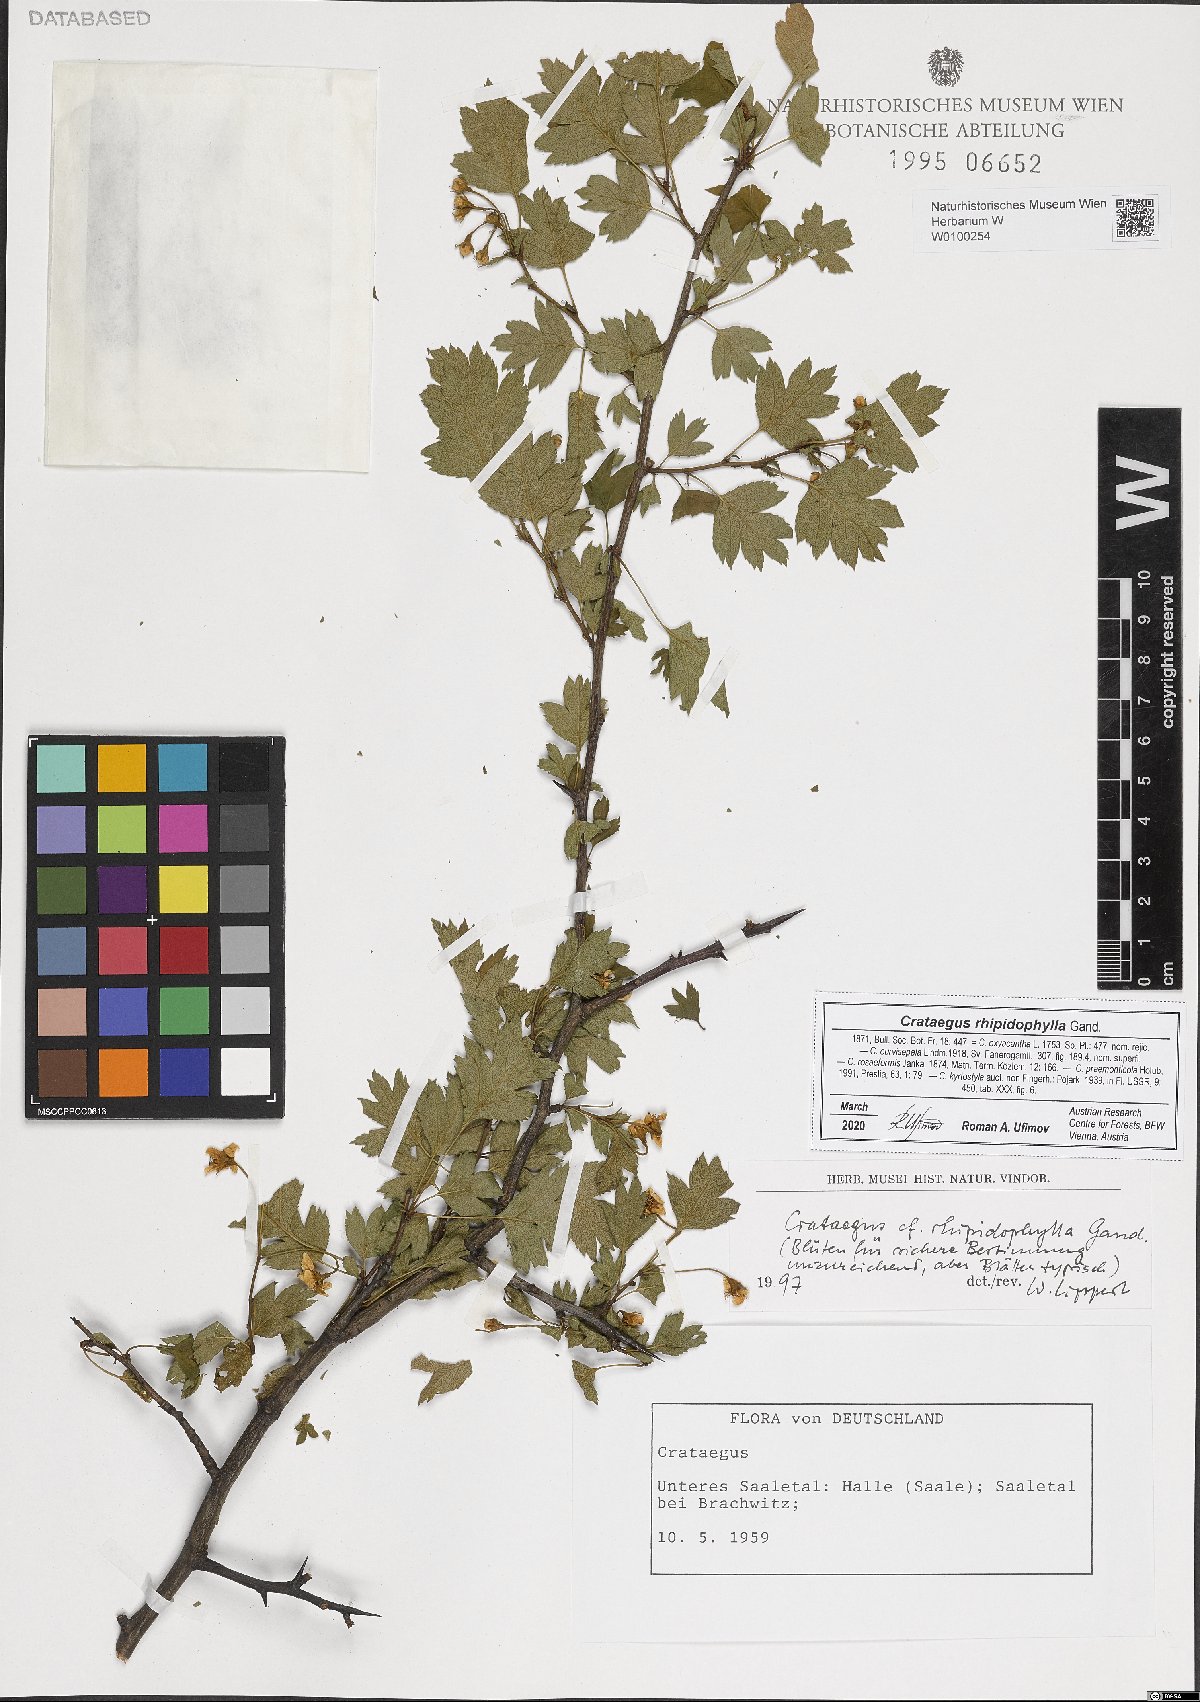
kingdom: Plantae
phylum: Tracheophyta
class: Magnoliopsida
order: Rosales
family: Rosaceae
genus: Crataegus
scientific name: Crataegus rhipidophylla
